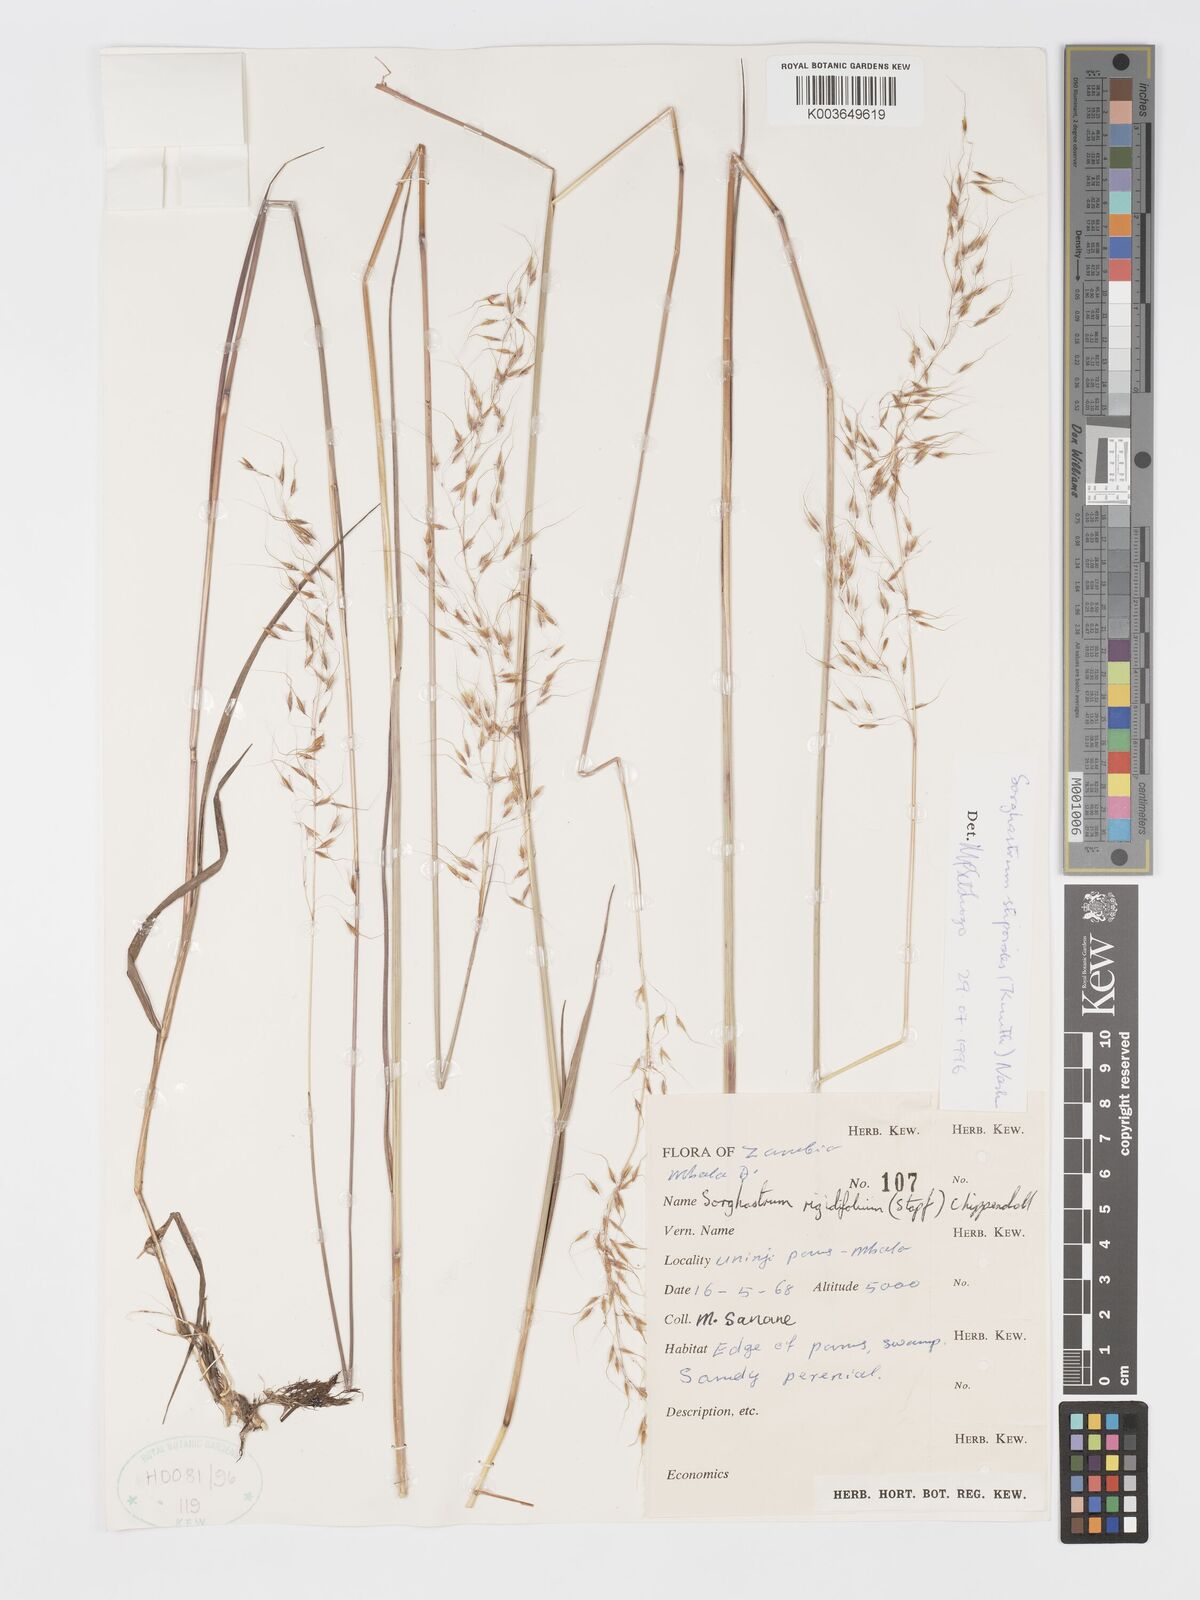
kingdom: Plantae
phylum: Tracheophyta
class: Liliopsida
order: Poales
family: Poaceae
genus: Sorghastrum
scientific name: Sorghastrum stipoides
